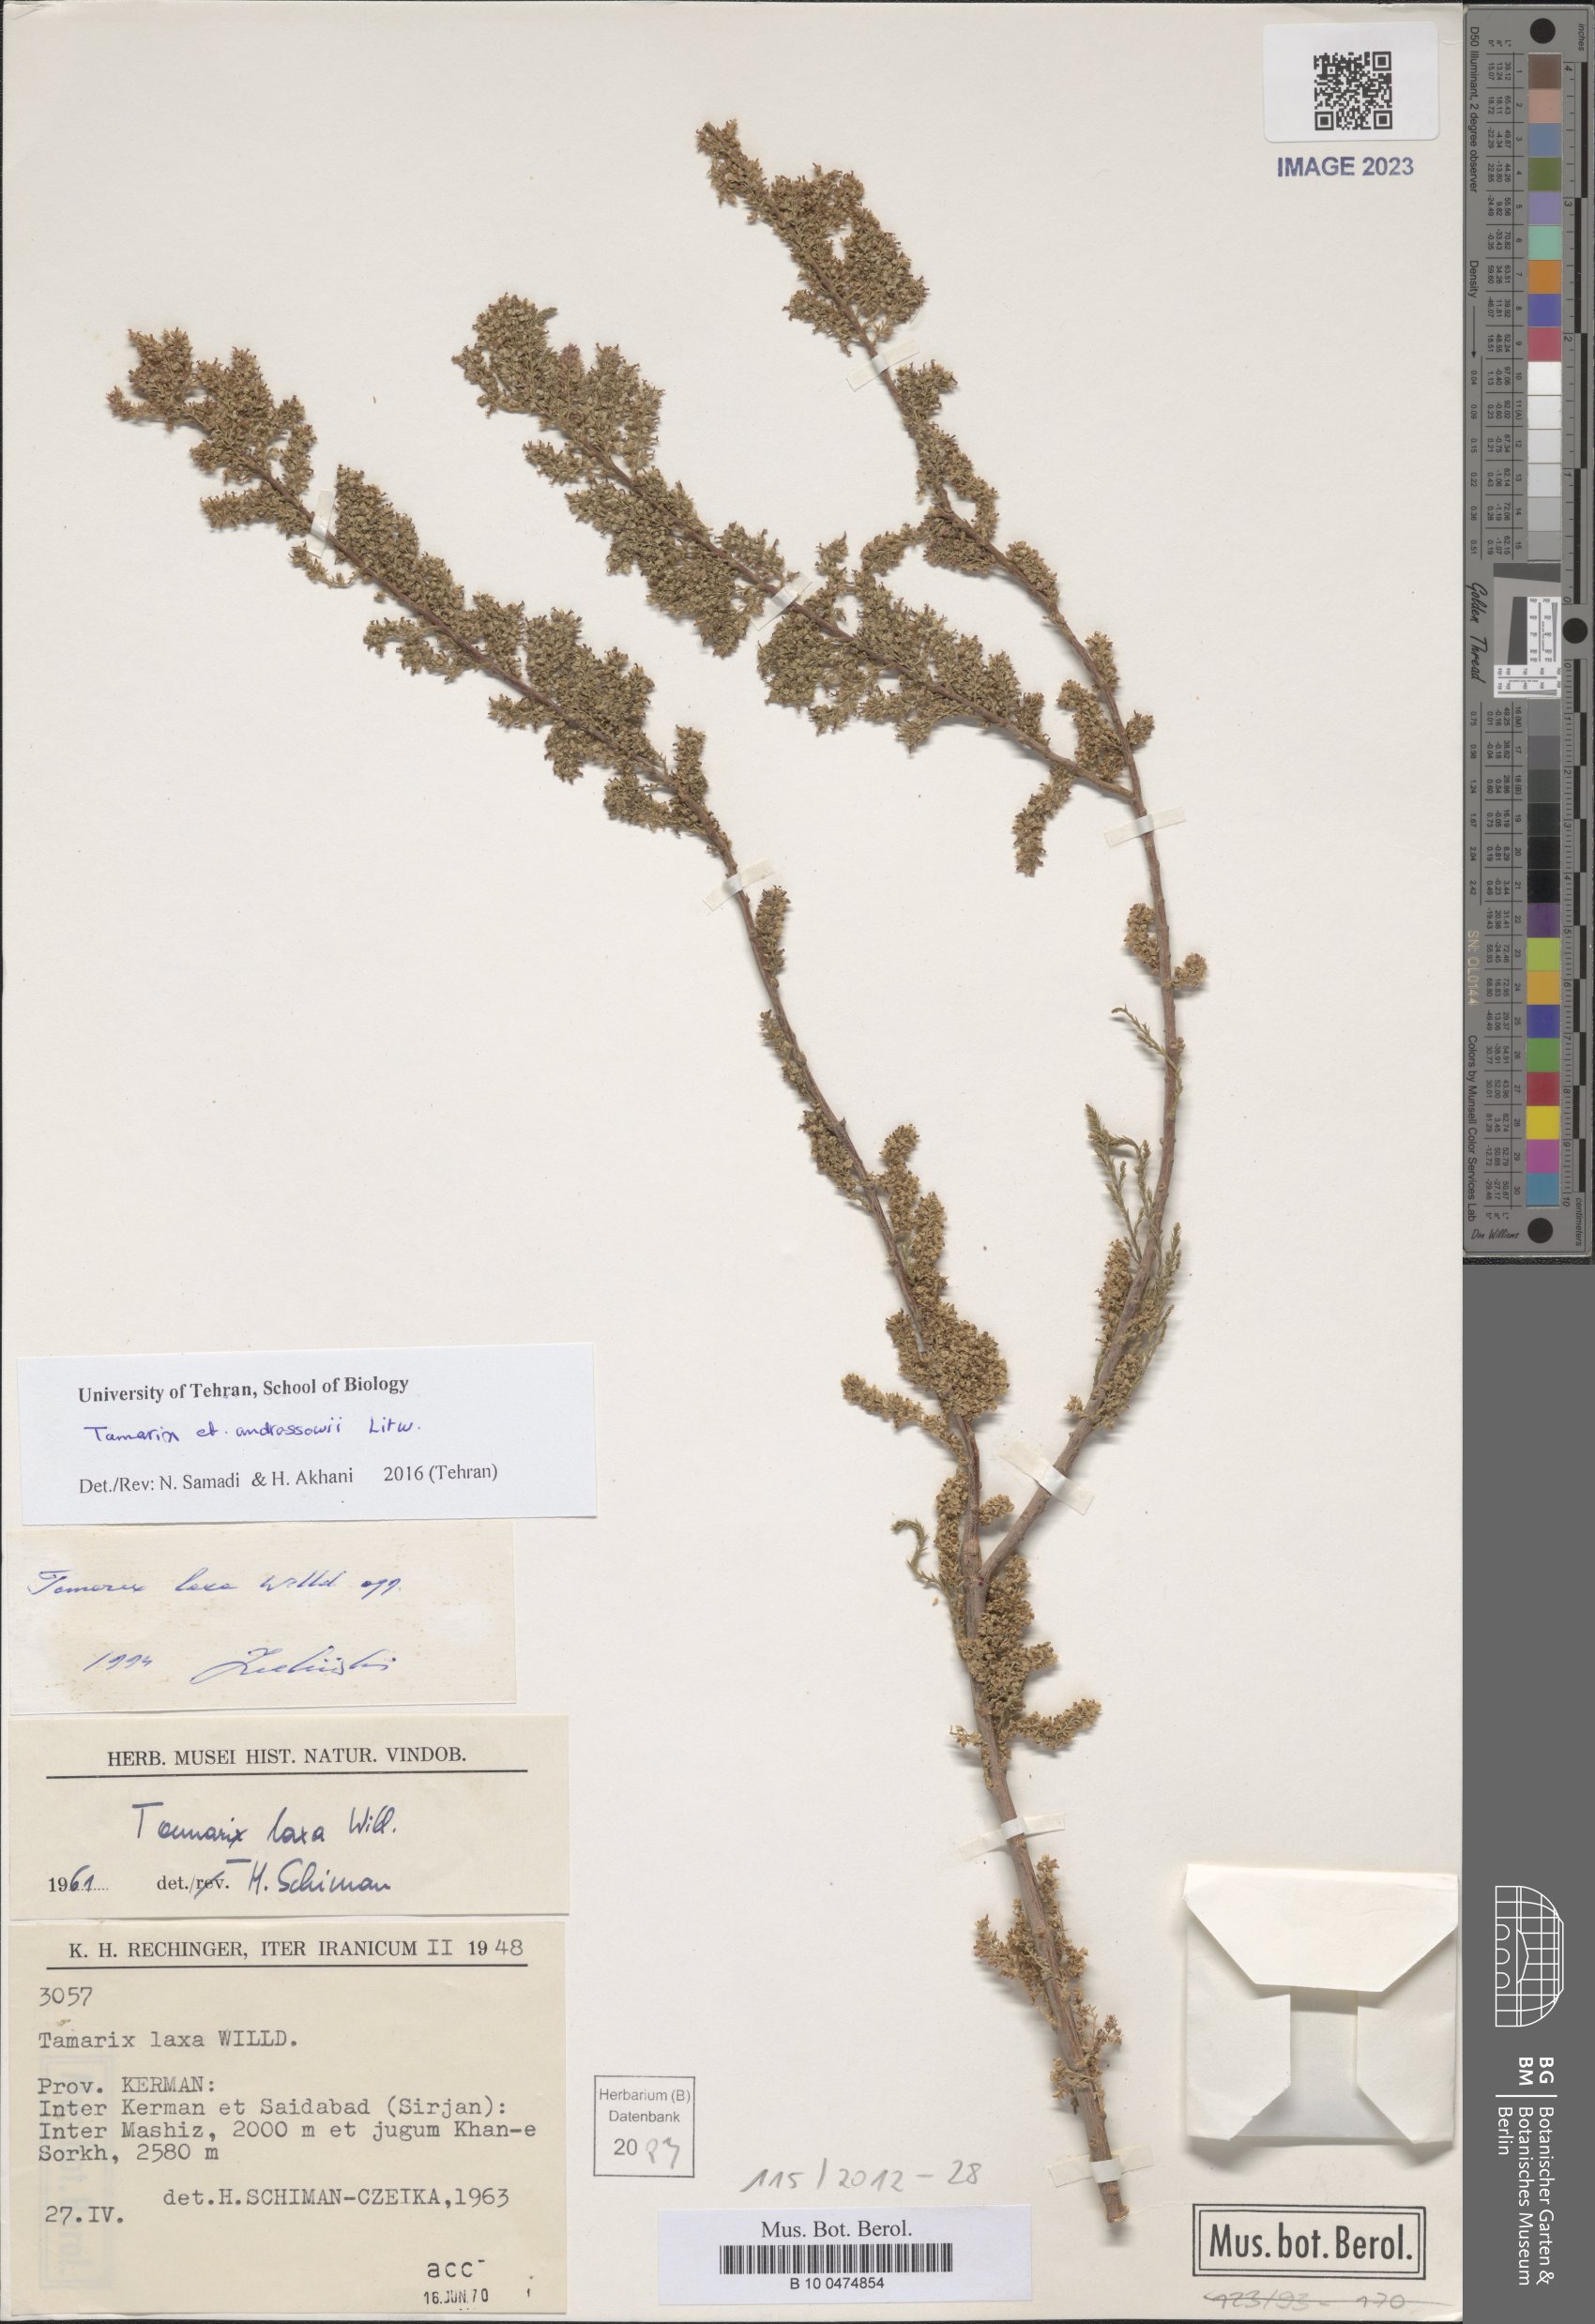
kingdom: Plantae
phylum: Tracheophyta
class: Magnoliopsida
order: Caryophyllales
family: Tamaricaceae
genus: Tamarix
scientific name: Tamarix androssowii
